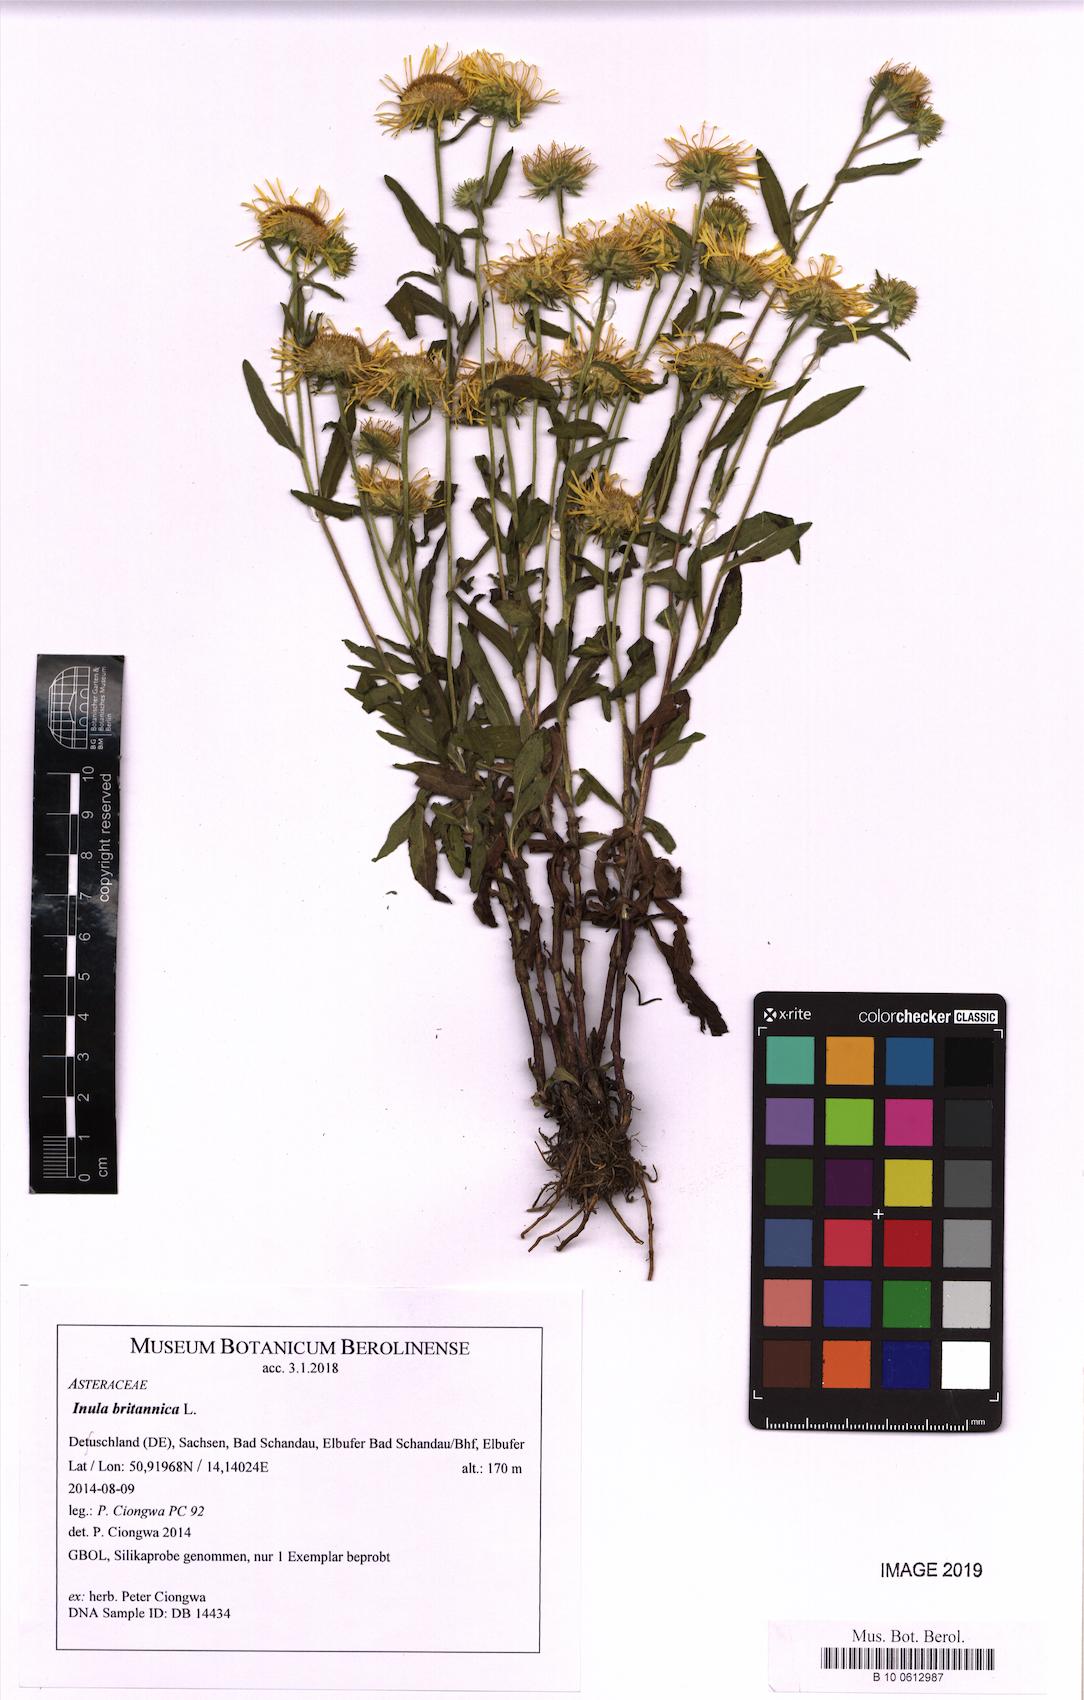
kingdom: Plantae
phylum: Tracheophyta
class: Magnoliopsida
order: Asterales
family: Asteraceae
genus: Pentanema
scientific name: Pentanema britannicum
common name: British elecampane
